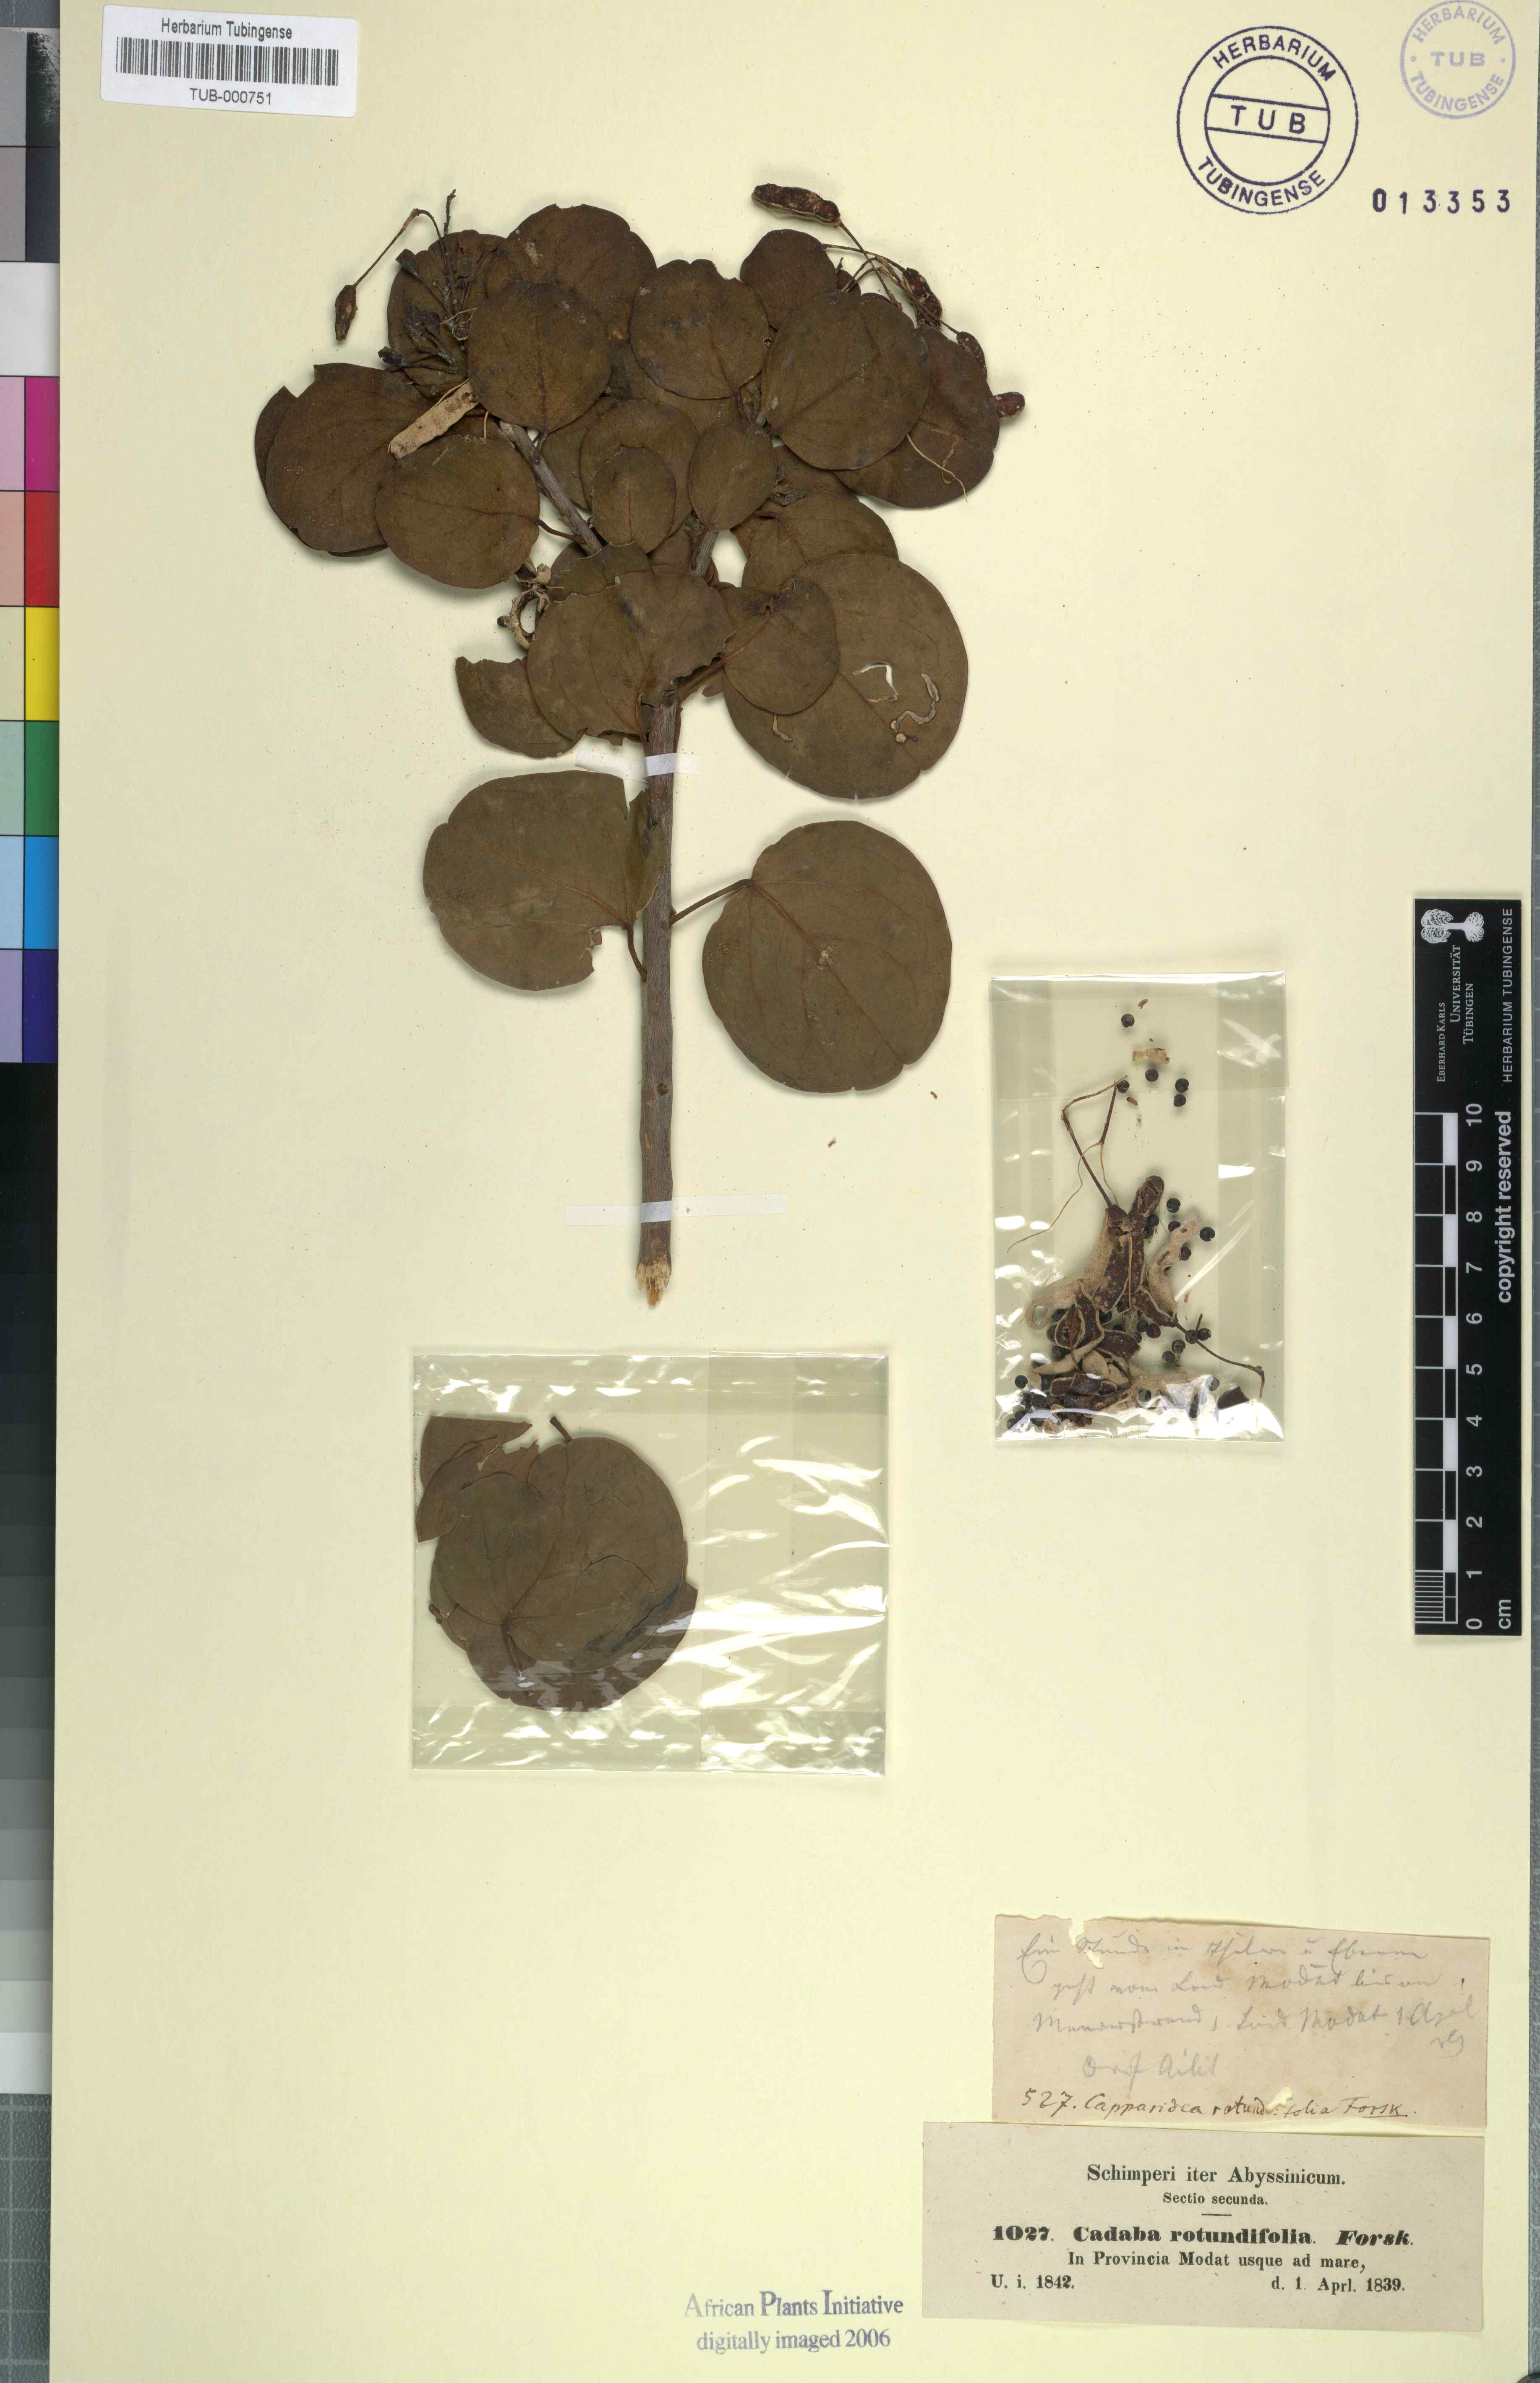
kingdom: Plantae
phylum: Tracheophyta
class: Magnoliopsida
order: Brassicales
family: Capparaceae
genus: Cadaba
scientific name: Cadaba rotundifolia
